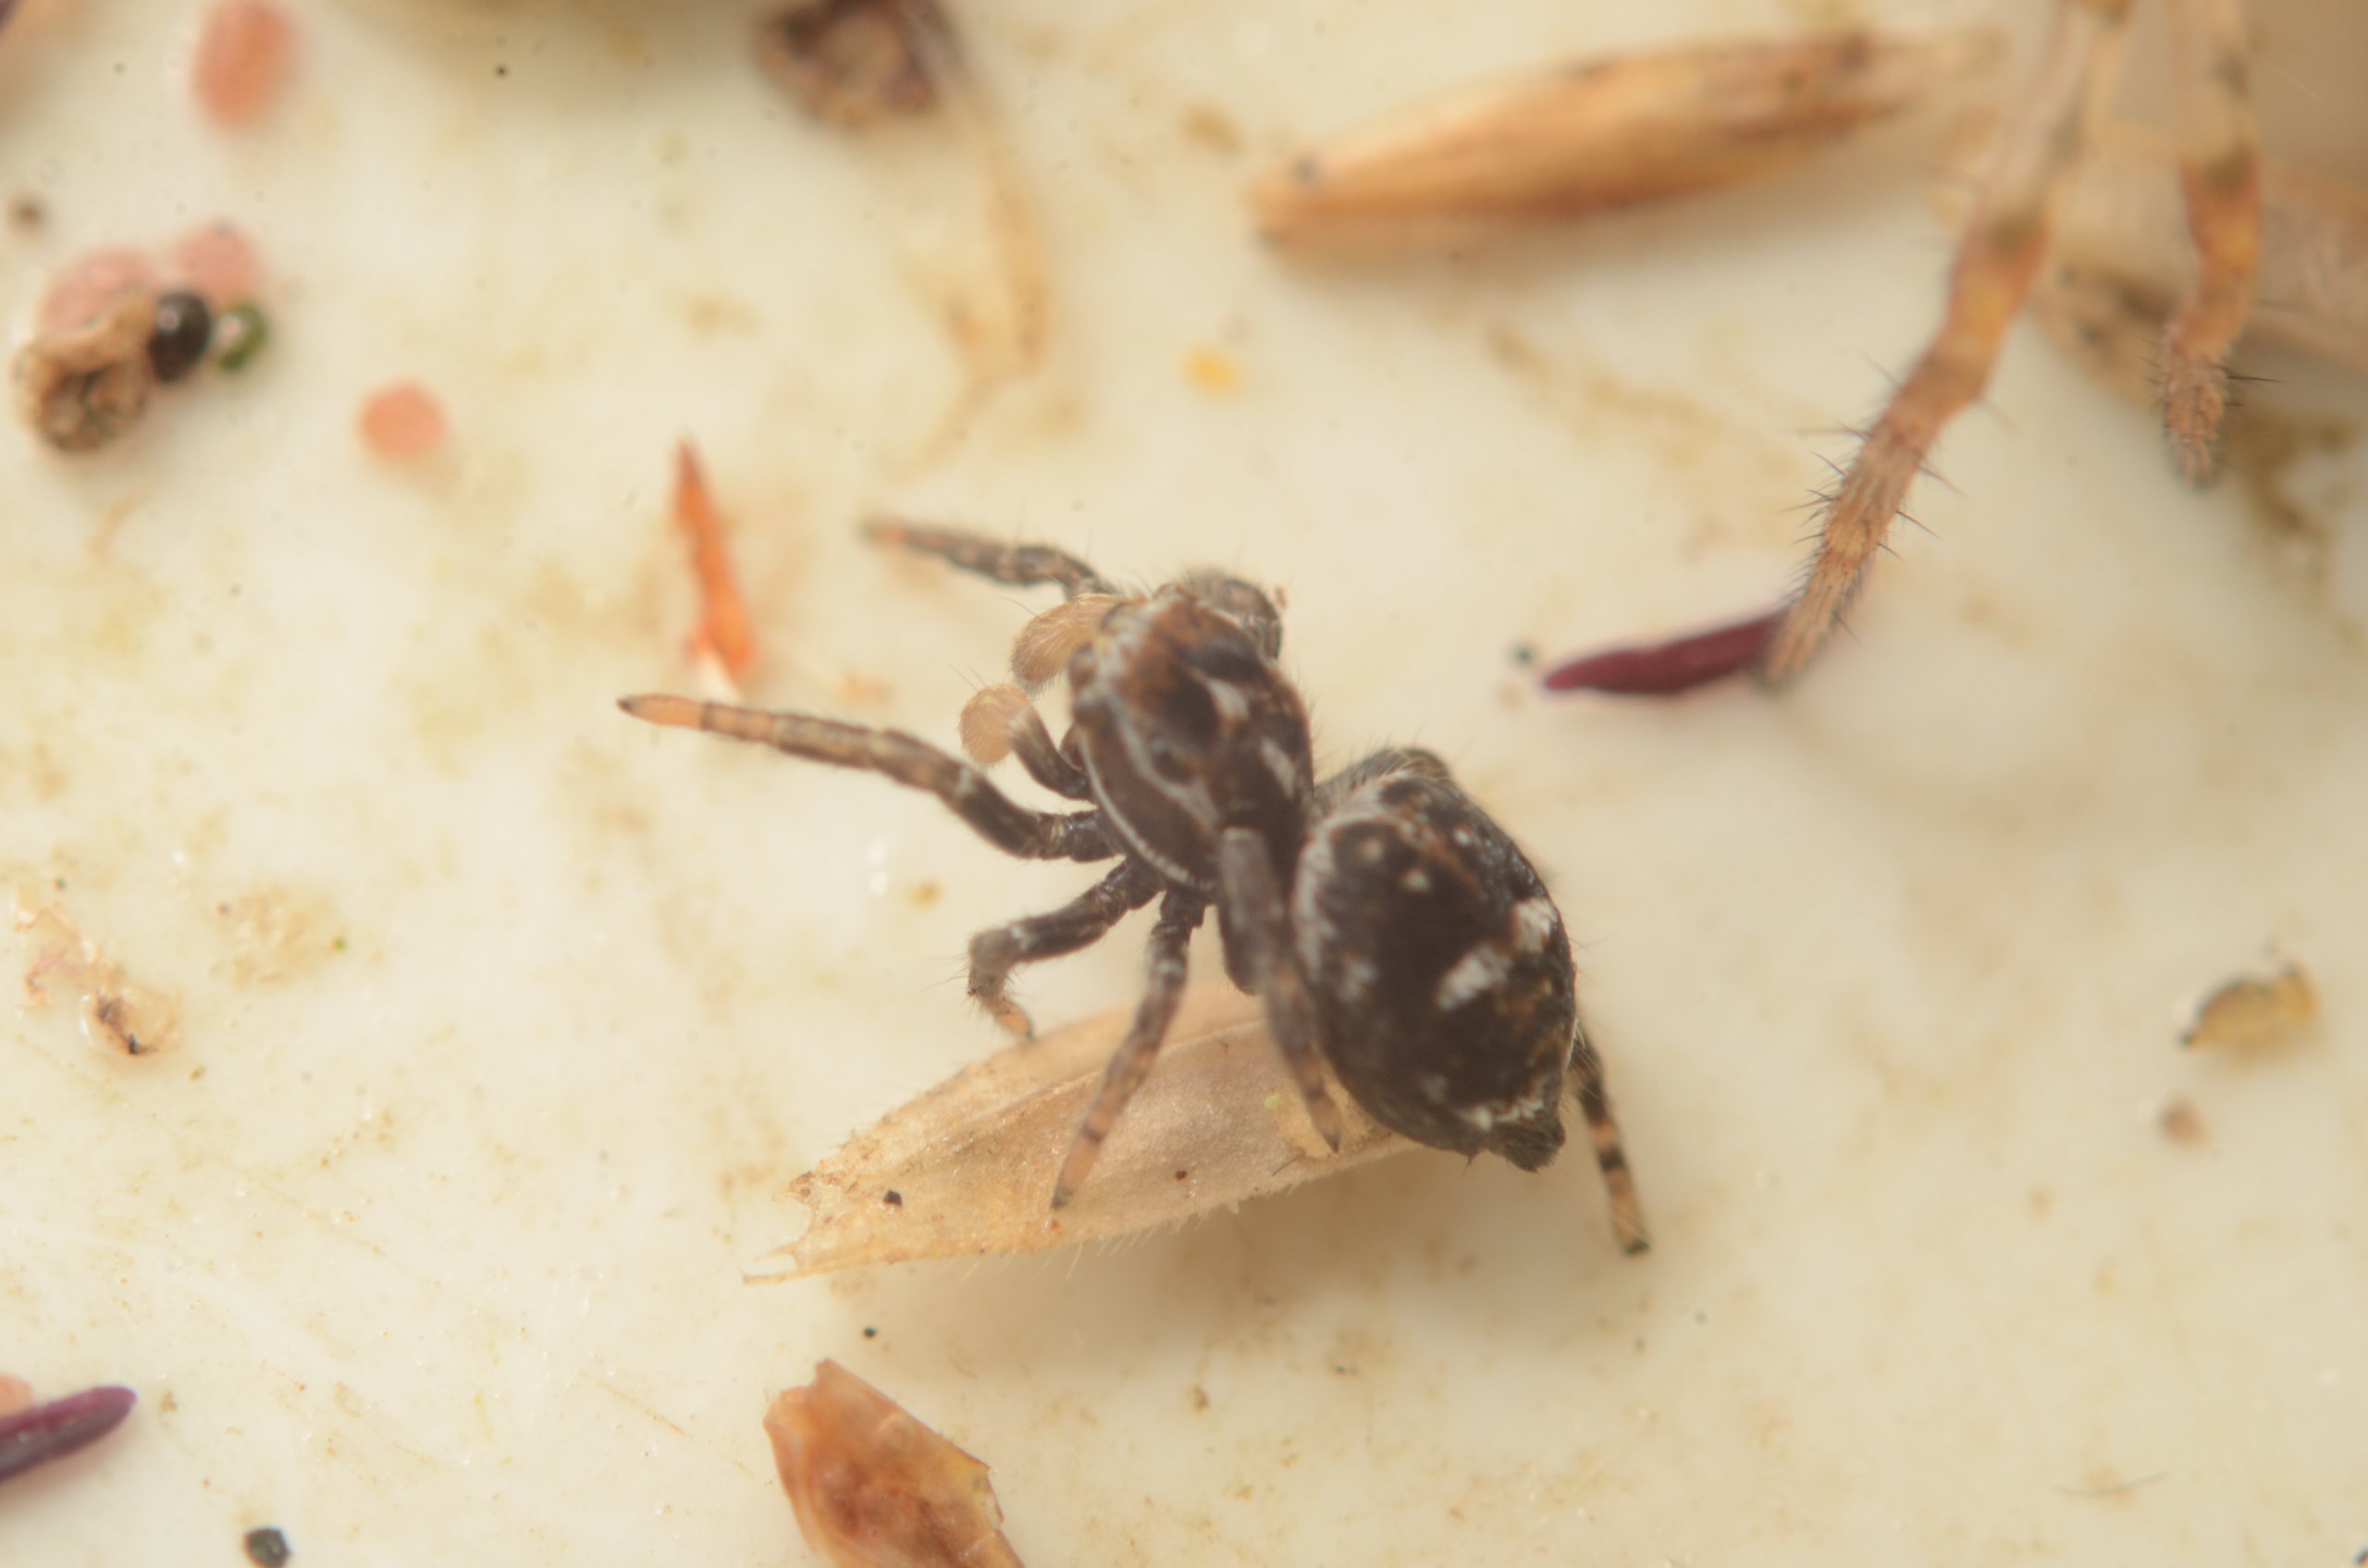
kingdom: Animalia
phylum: Arthropoda
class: Arachnida
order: Araneae
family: Salticidae
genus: Attulus
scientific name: Attulus floricola
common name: Mosespringer
